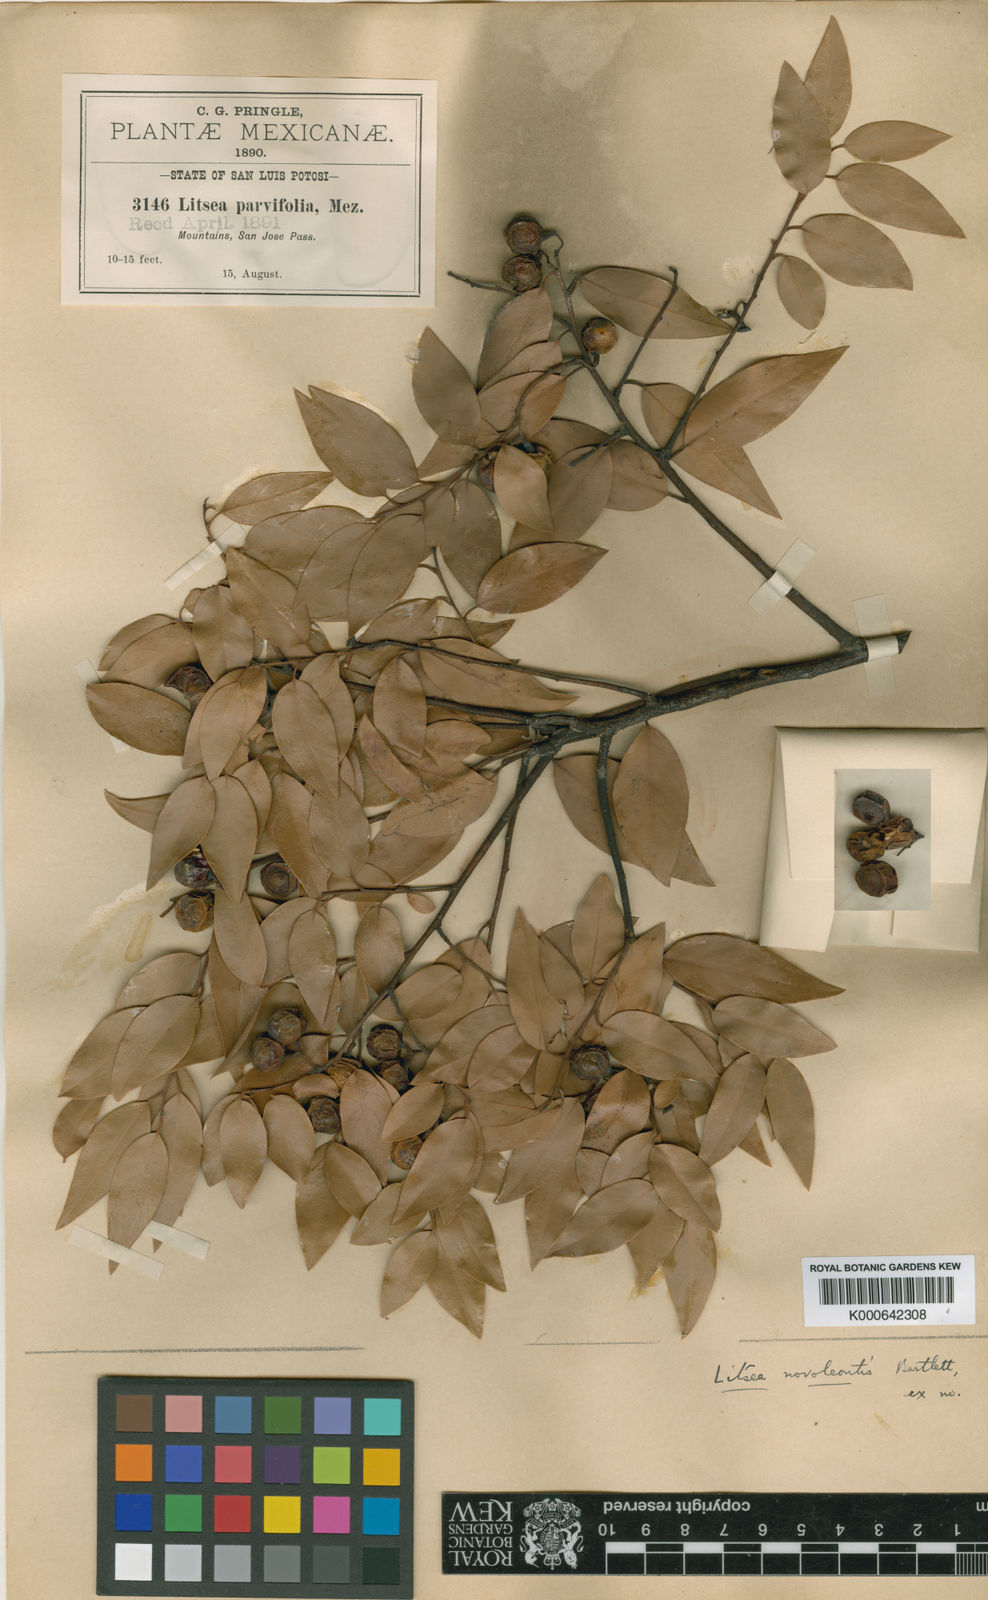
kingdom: Plantae
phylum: Tracheophyta
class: Magnoliopsida
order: Laurales
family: Lauraceae
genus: Litsea
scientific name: Litsea parvifolia
